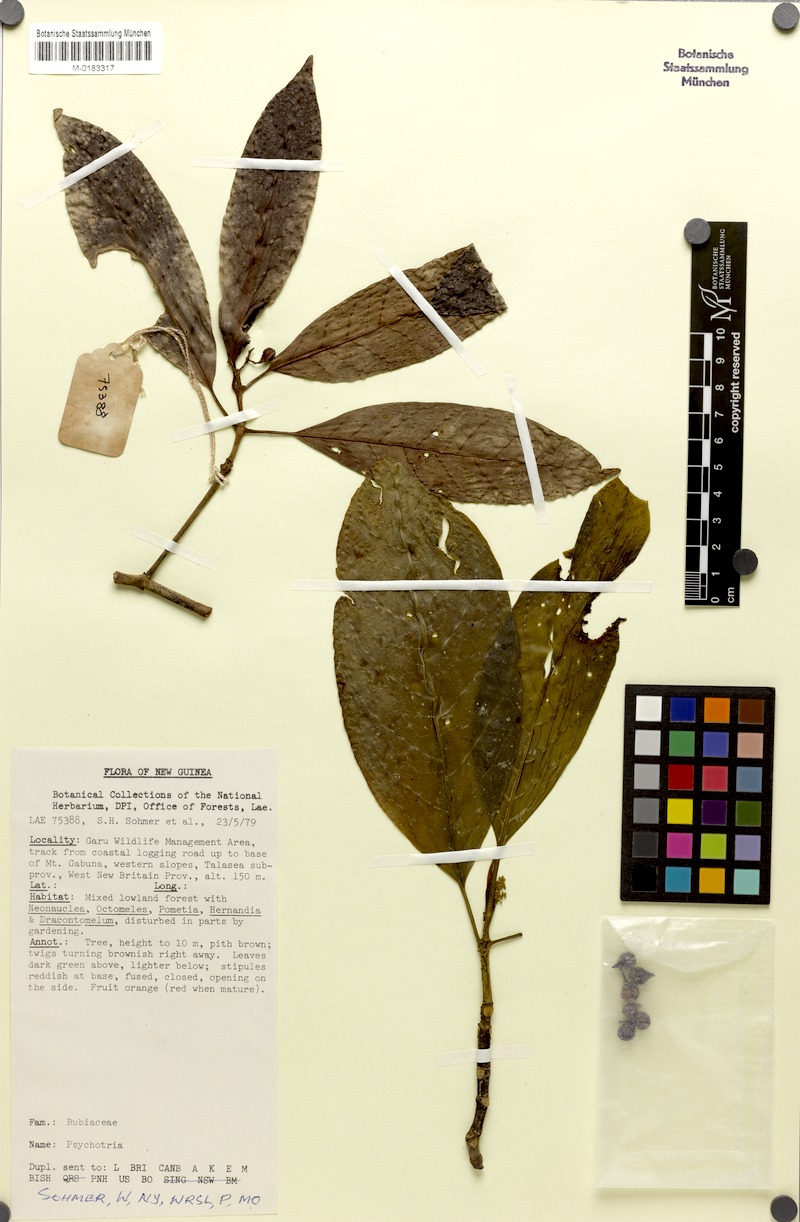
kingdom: Plantae
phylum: Tracheophyta
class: Magnoliopsida
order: Gentianales
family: Rubiaceae
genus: Psychotria
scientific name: Psychotria talasensis
